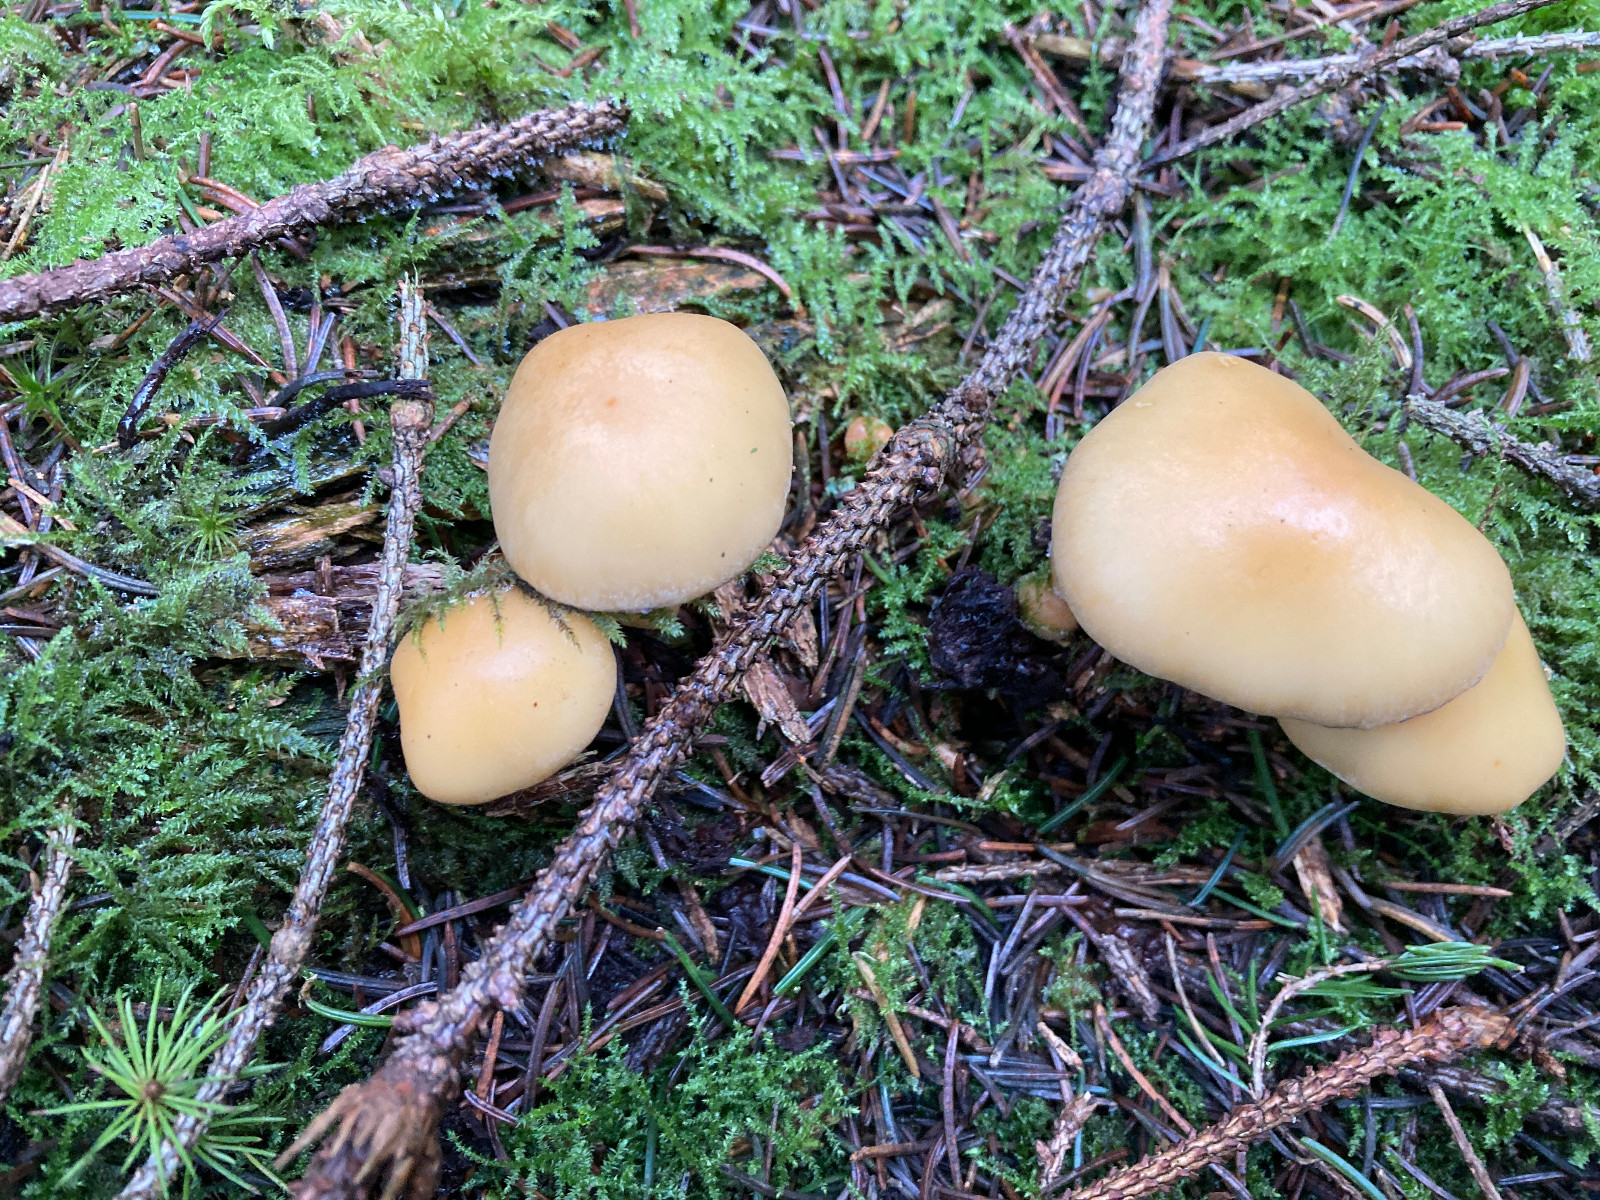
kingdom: Fungi
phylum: Basidiomycota
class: Agaricomycetes
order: Agaricales
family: Strophariaceae
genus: Hypholoma
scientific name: Hypholoma capnoides
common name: gran-svovlhat
